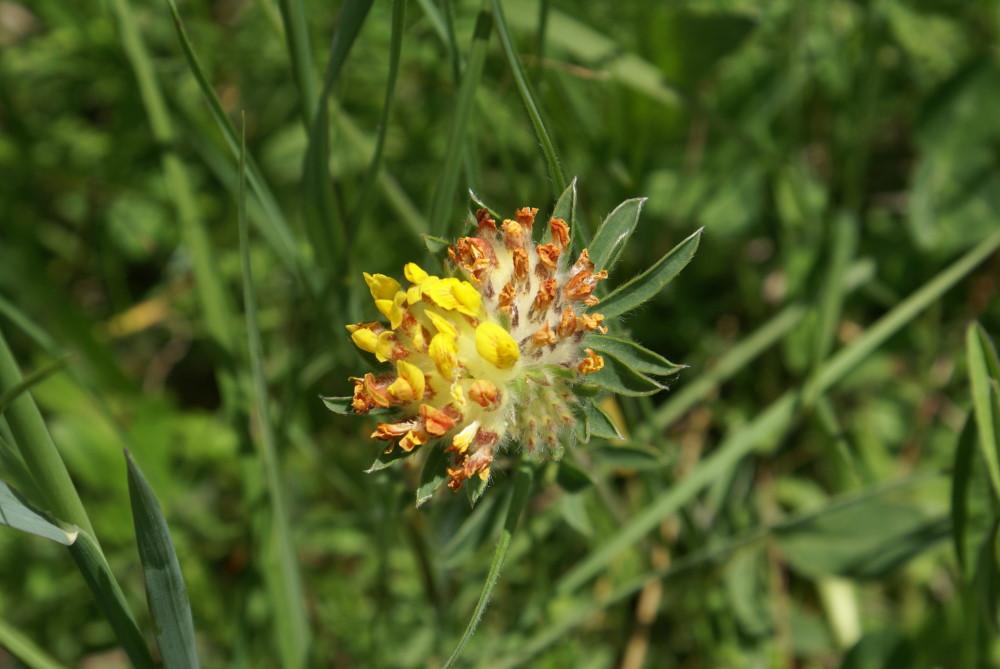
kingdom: Plantae
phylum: Tracheophyta
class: Magnoliopsida
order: Fabales
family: Fabaceae
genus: Anthyllis
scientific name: Anthyllis vulneraria
